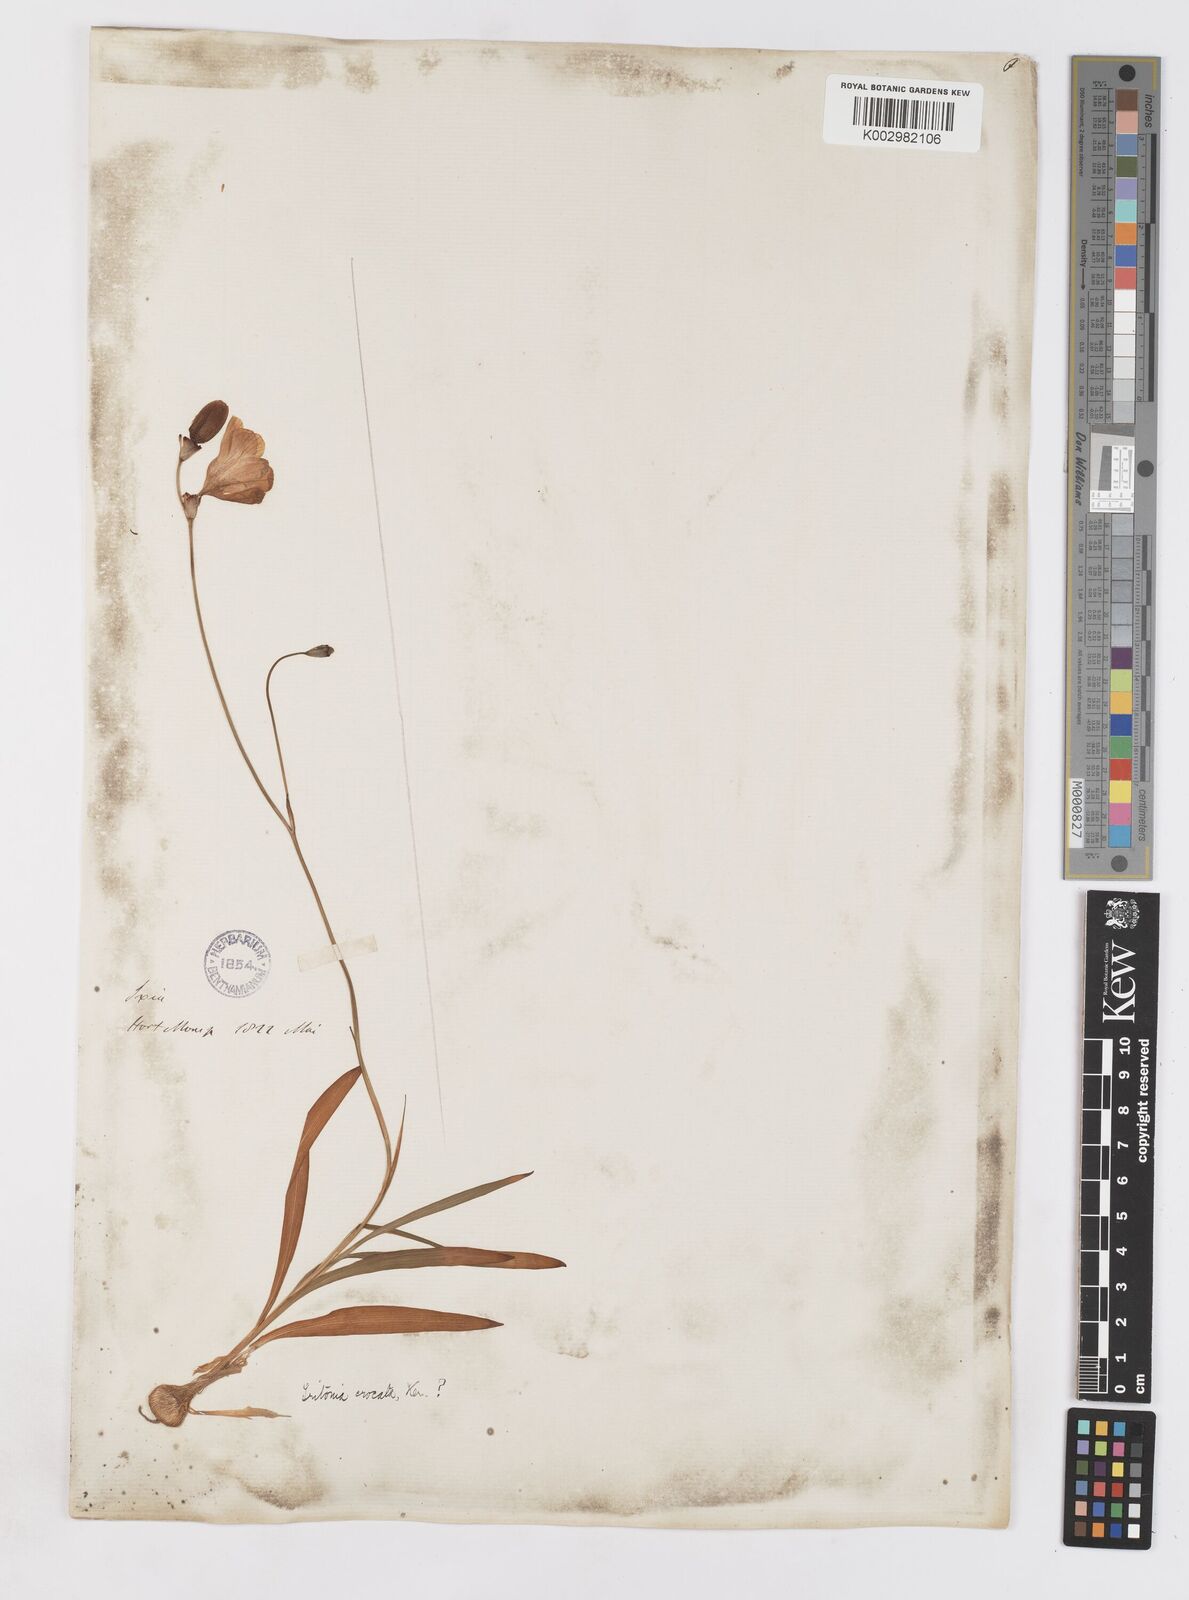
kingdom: Plantae
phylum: Tracheophyta
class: Liliopsida
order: Asparagales
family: Iridaceae
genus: Tritonia
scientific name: Tritonia deusta
